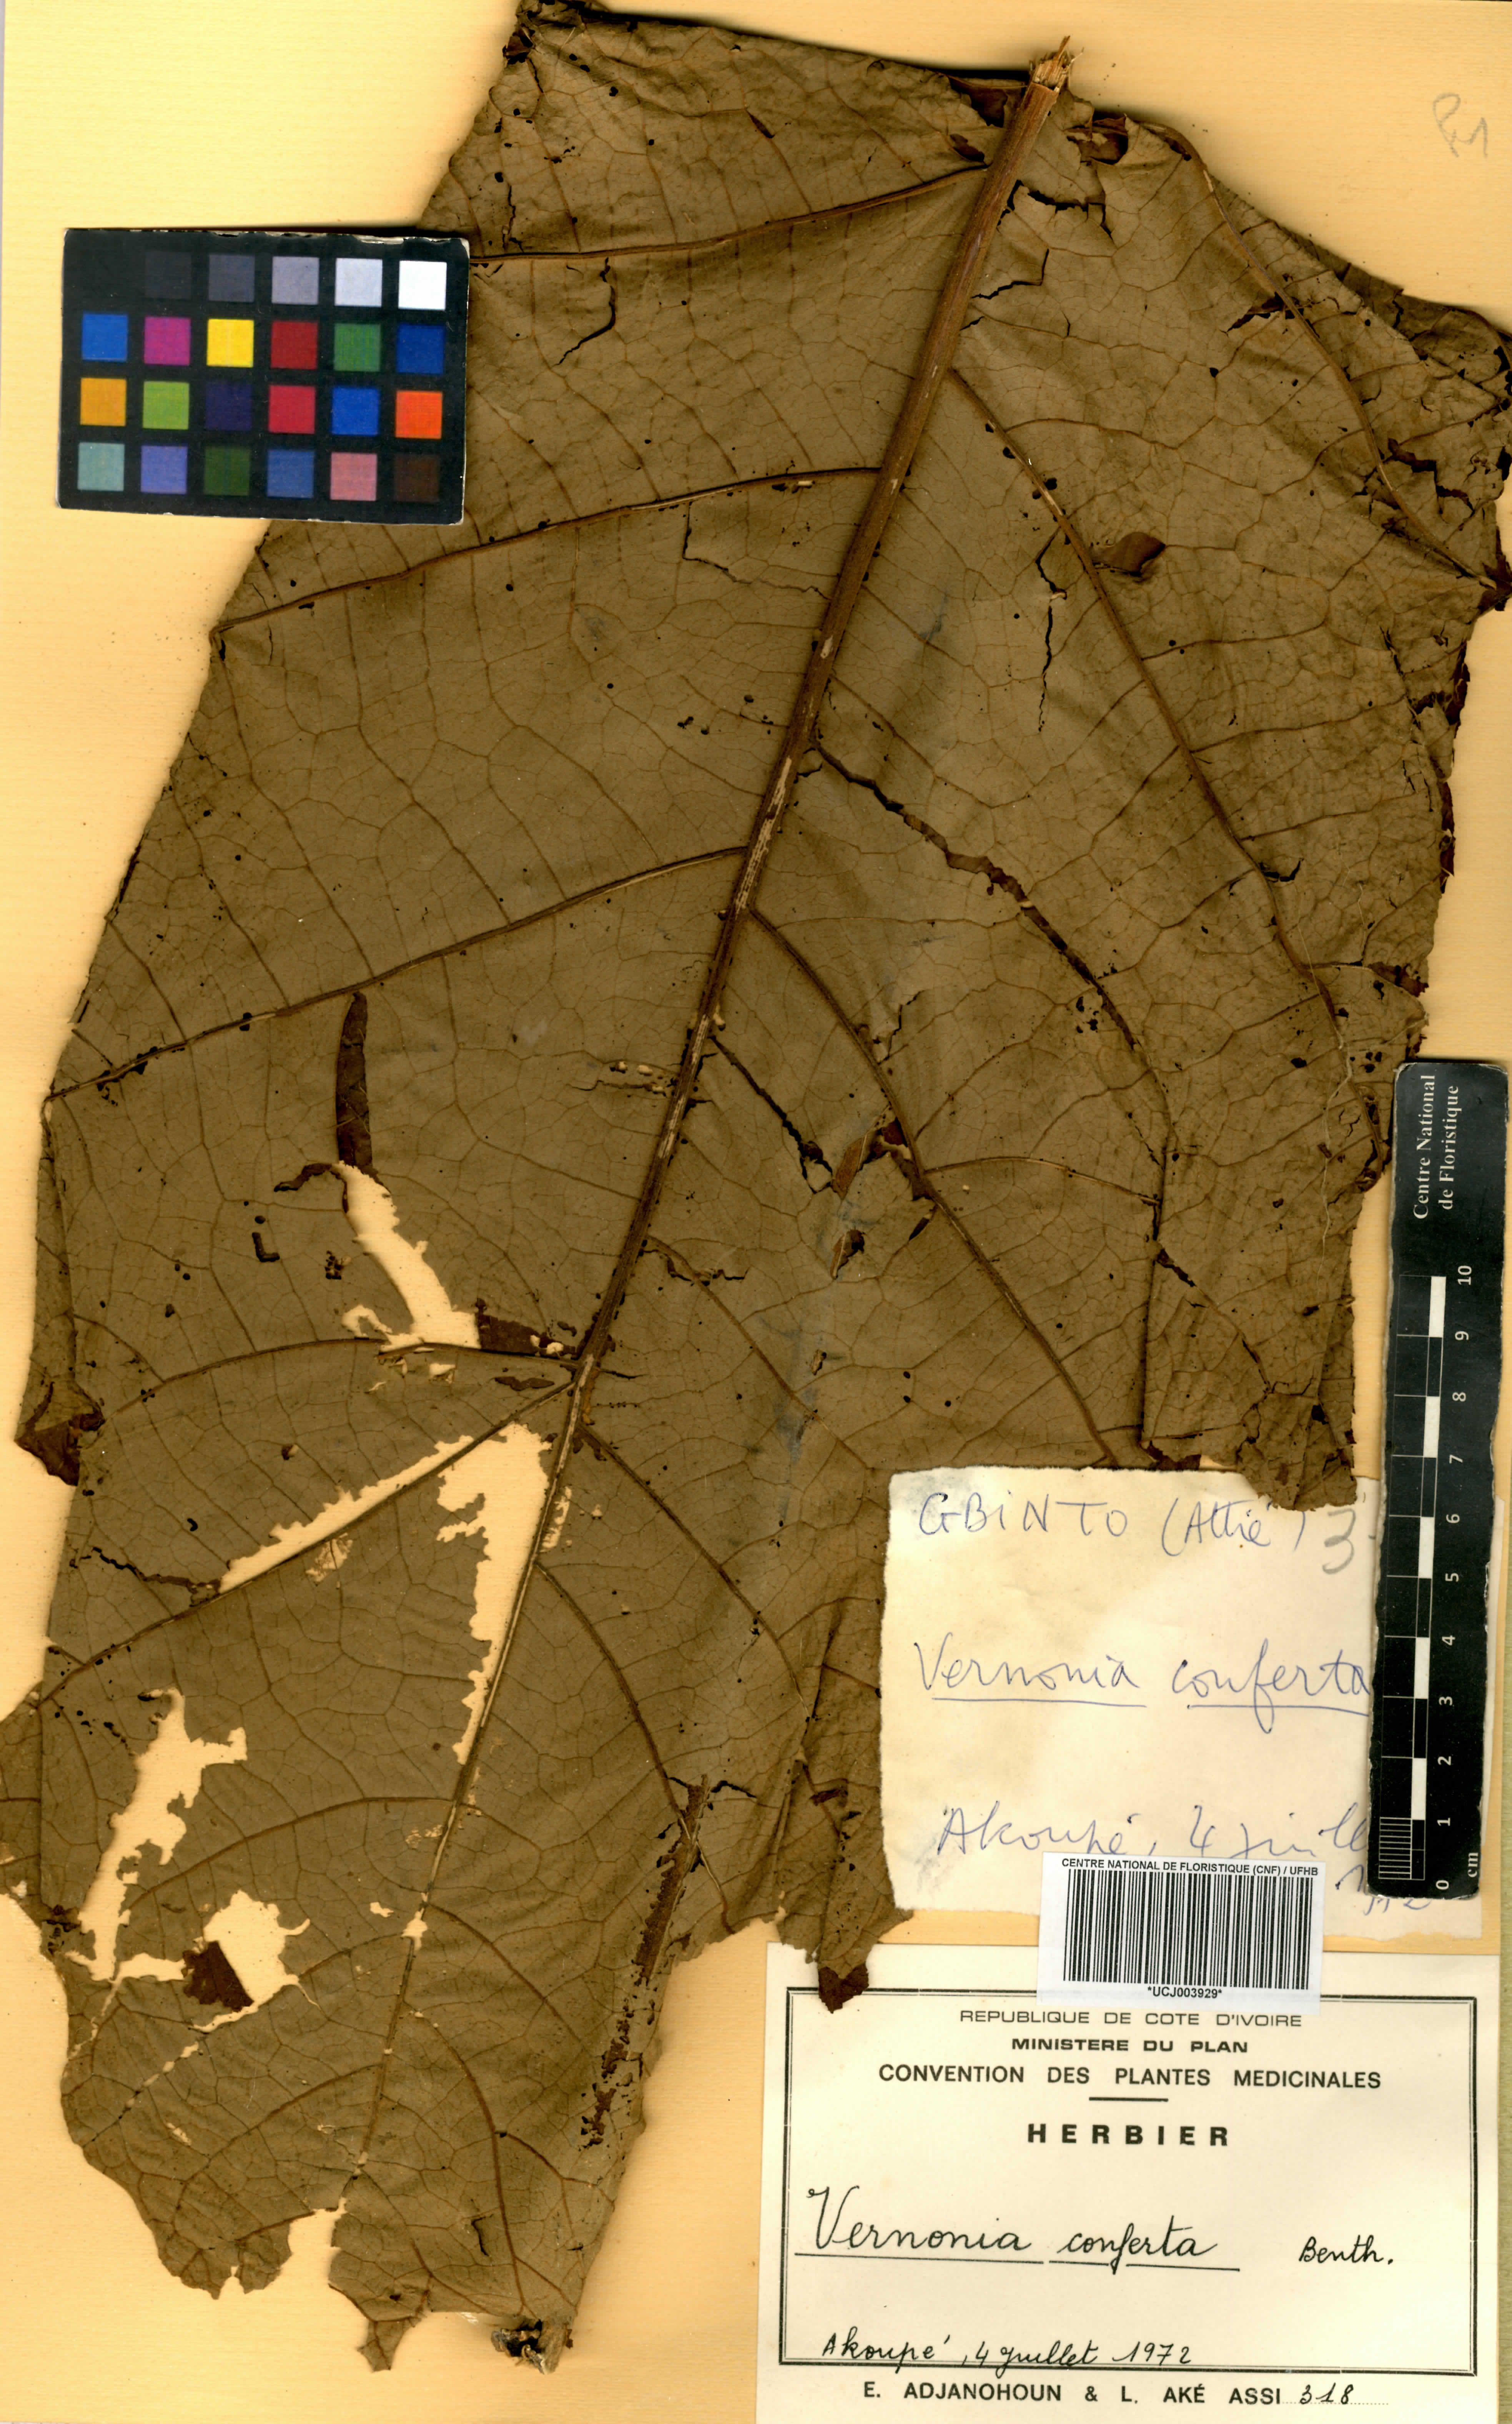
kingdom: Plantae
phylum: Tracheophyta
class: Magnoliopsida
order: Asterales
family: Asteraceae
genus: Monosis
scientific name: Monosis conferta
